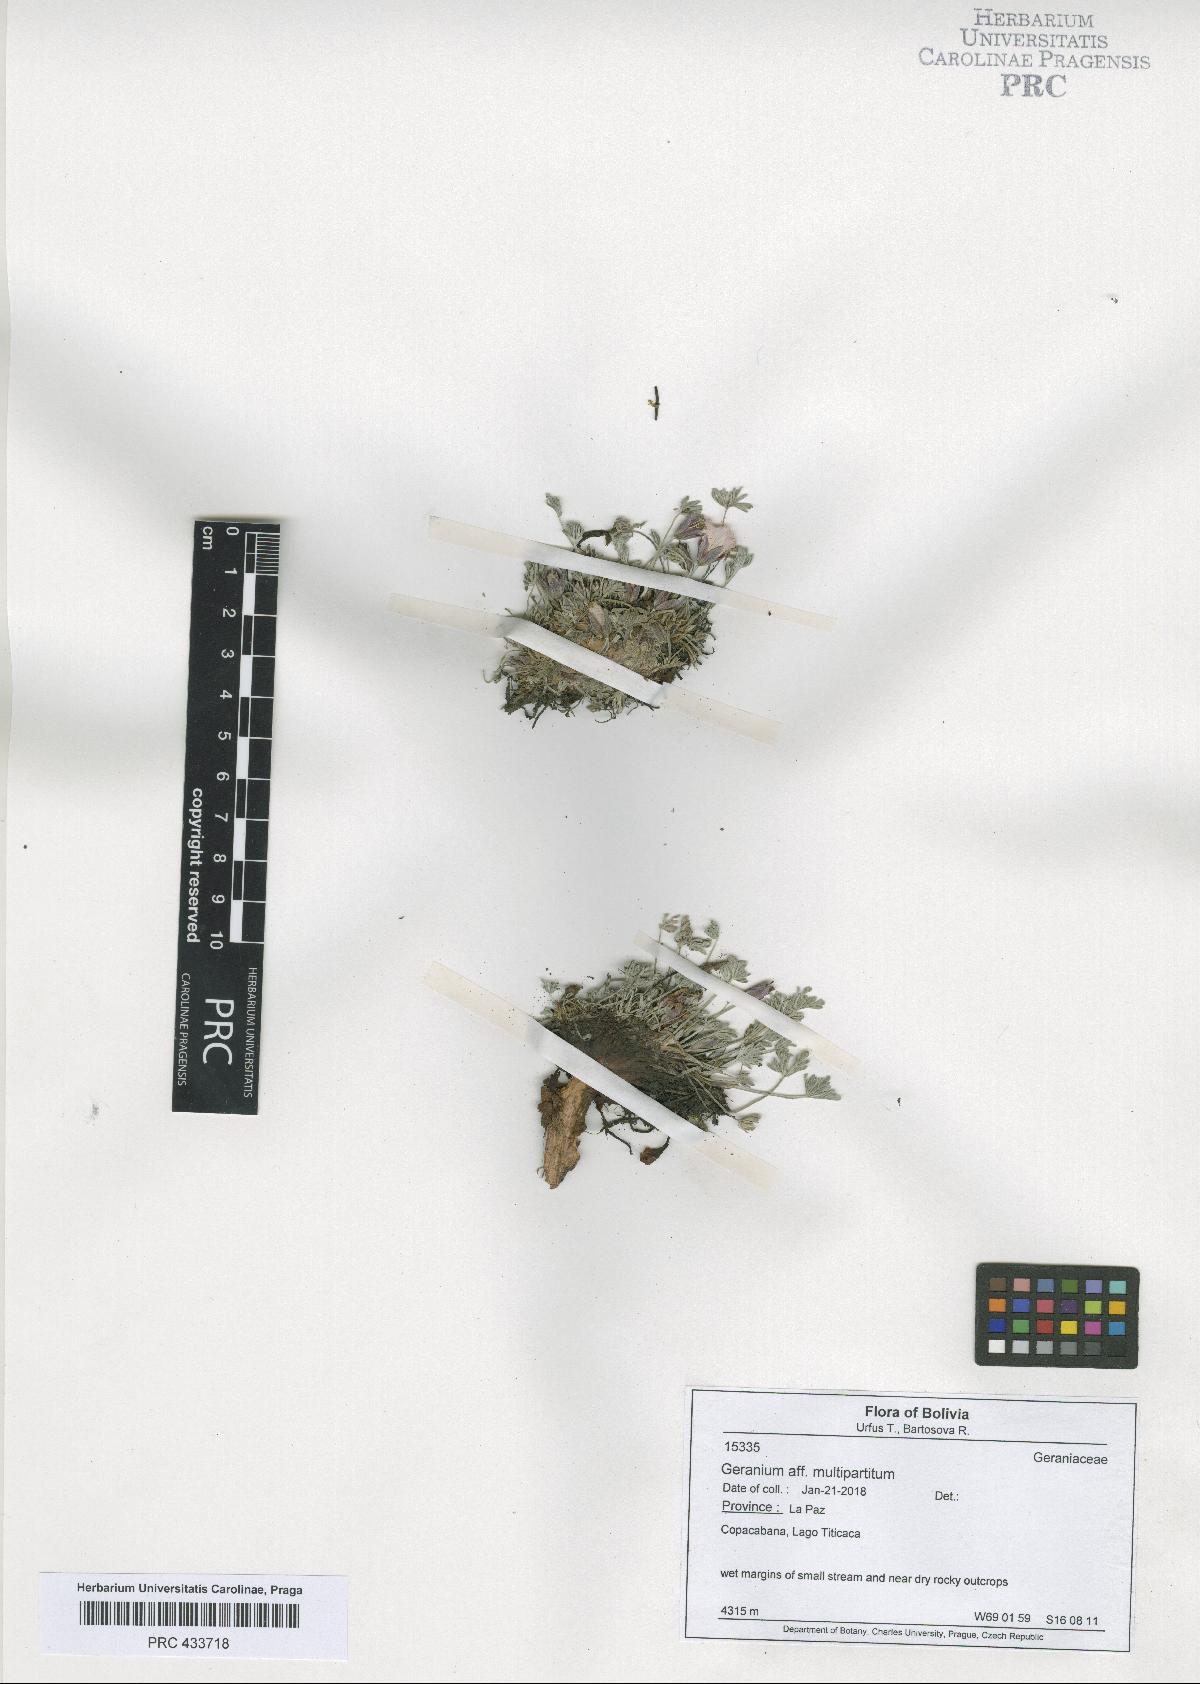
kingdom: Plantae
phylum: Tracheophyta
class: Magnoliopsida
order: Geraniales
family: Geraniaceae
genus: Geranium
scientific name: Geranium weddellii
